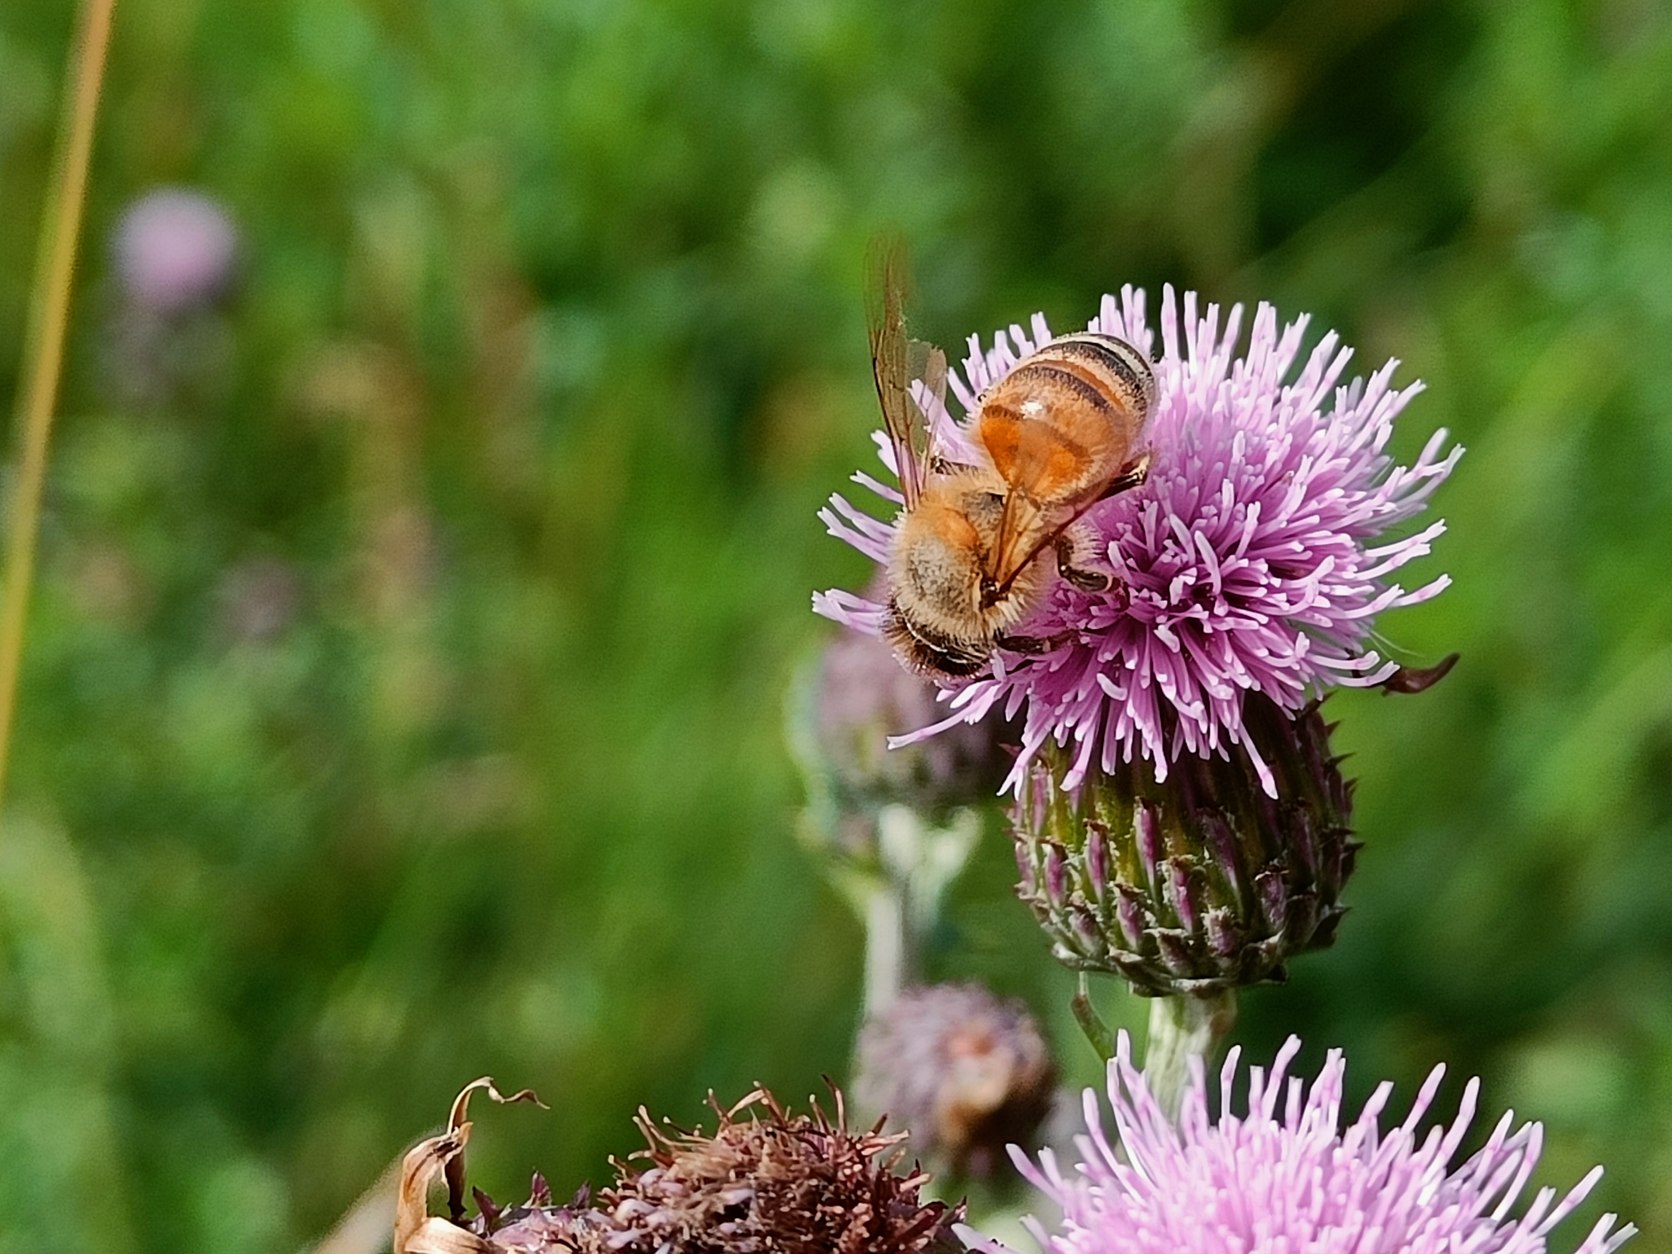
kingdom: Animalia
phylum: Arthropoda
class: Insecta
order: Hymenoptera
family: Apidae
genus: Apis
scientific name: Apis mellifera
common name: Honningbi
